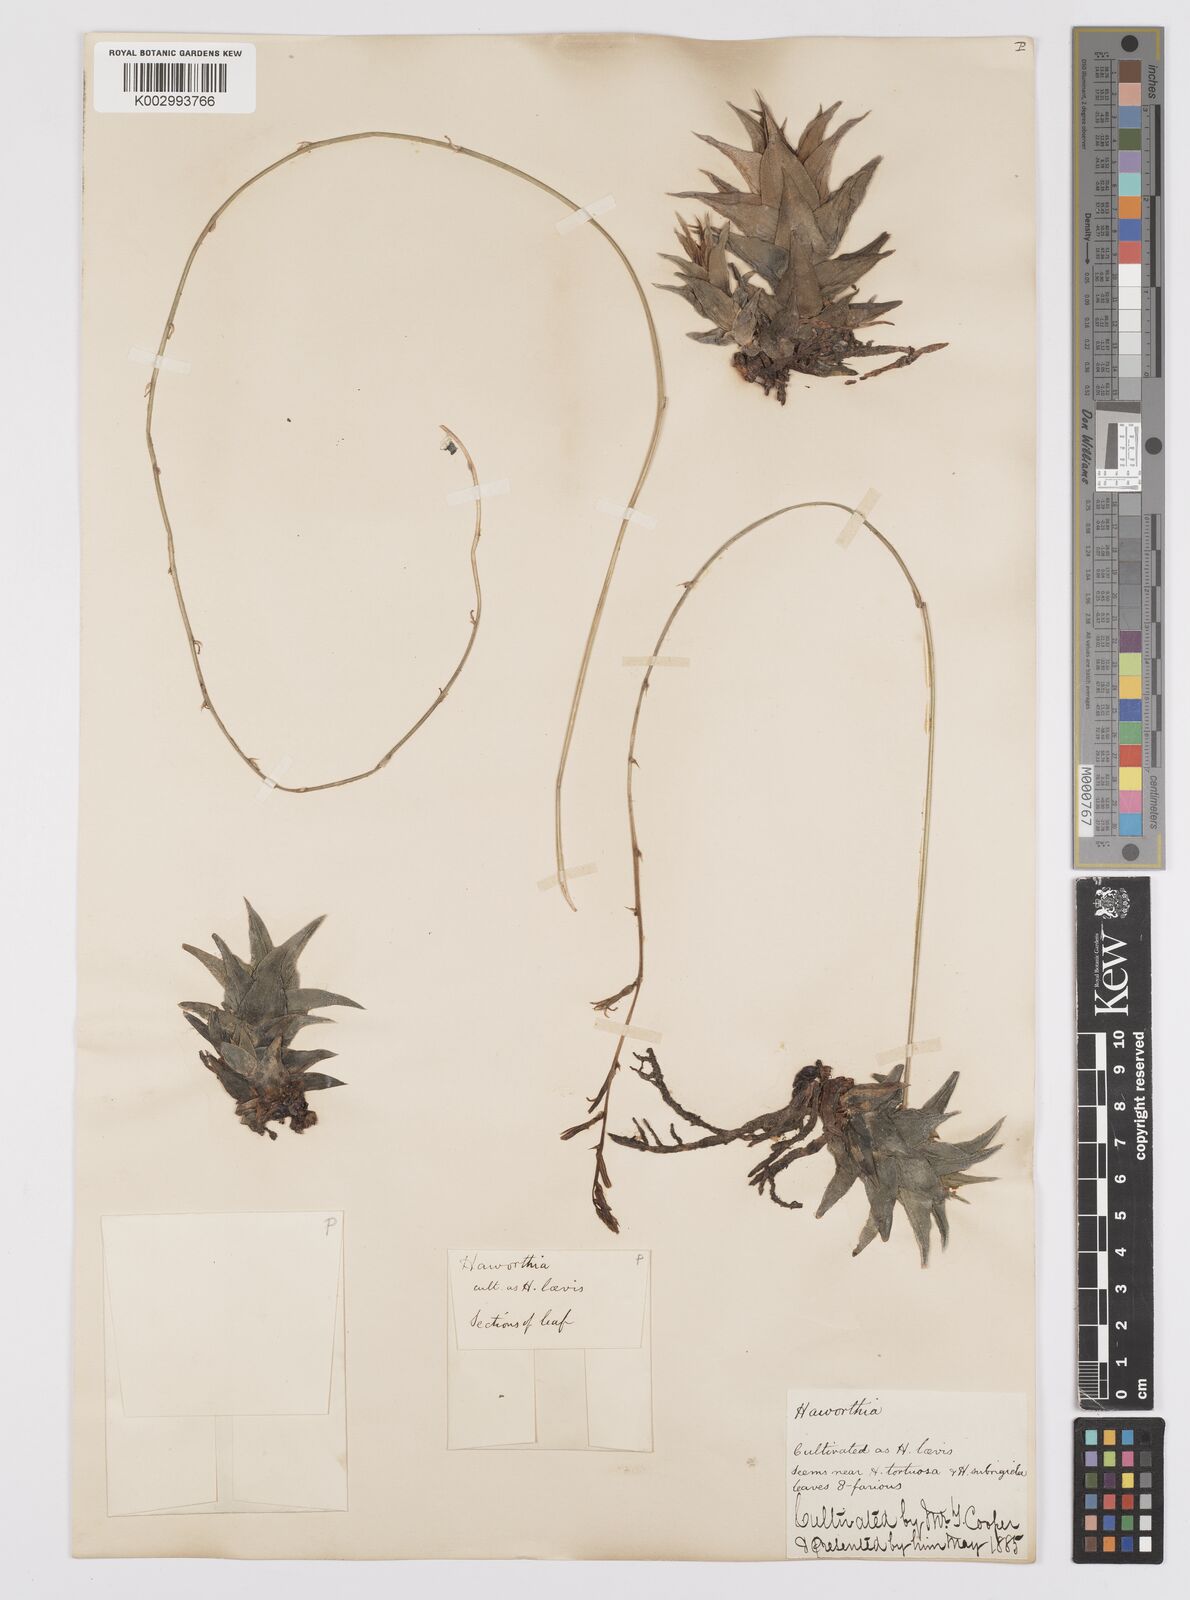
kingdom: Plantae
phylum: Tracheophyta
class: Liliopsida
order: Asparagales
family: Asphodelaceae
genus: Haworthiopsis
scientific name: Haworthiopsis tortuosa
